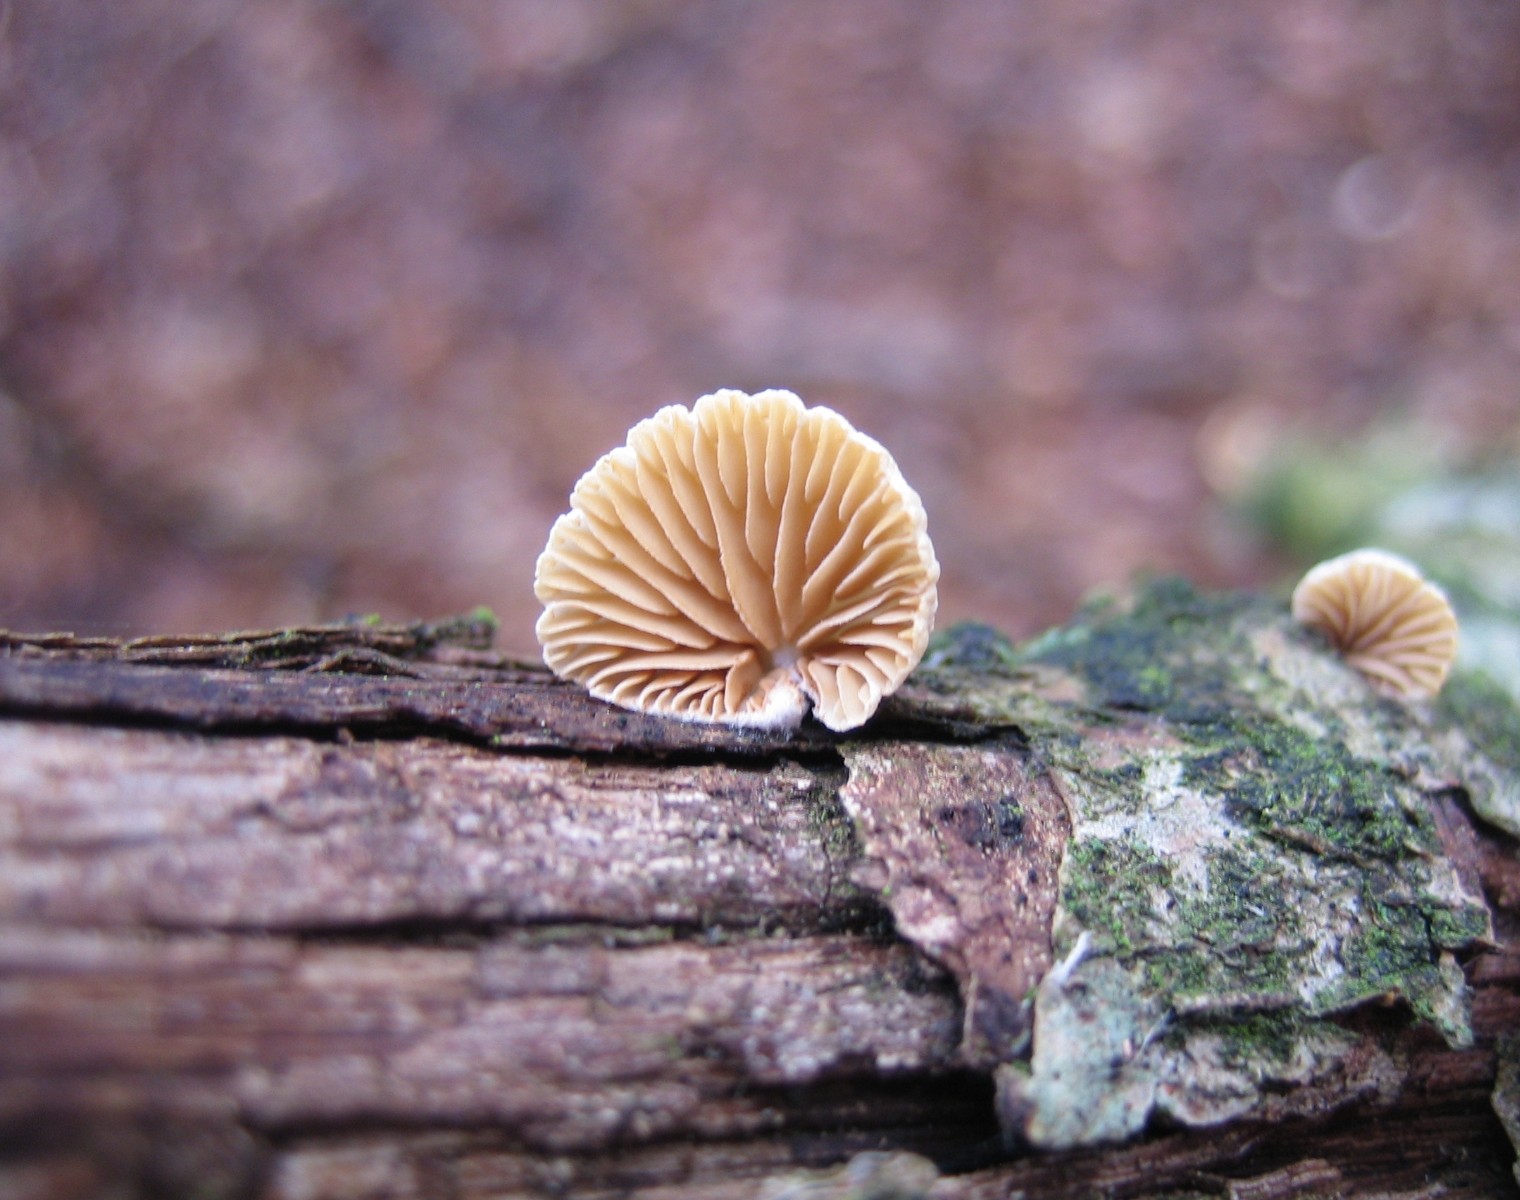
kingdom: Fungi
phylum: Basidiomycota
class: Agaricomycetes
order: Agaricales
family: Crepidotaceae
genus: Crepidotus
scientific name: Crepidotus
